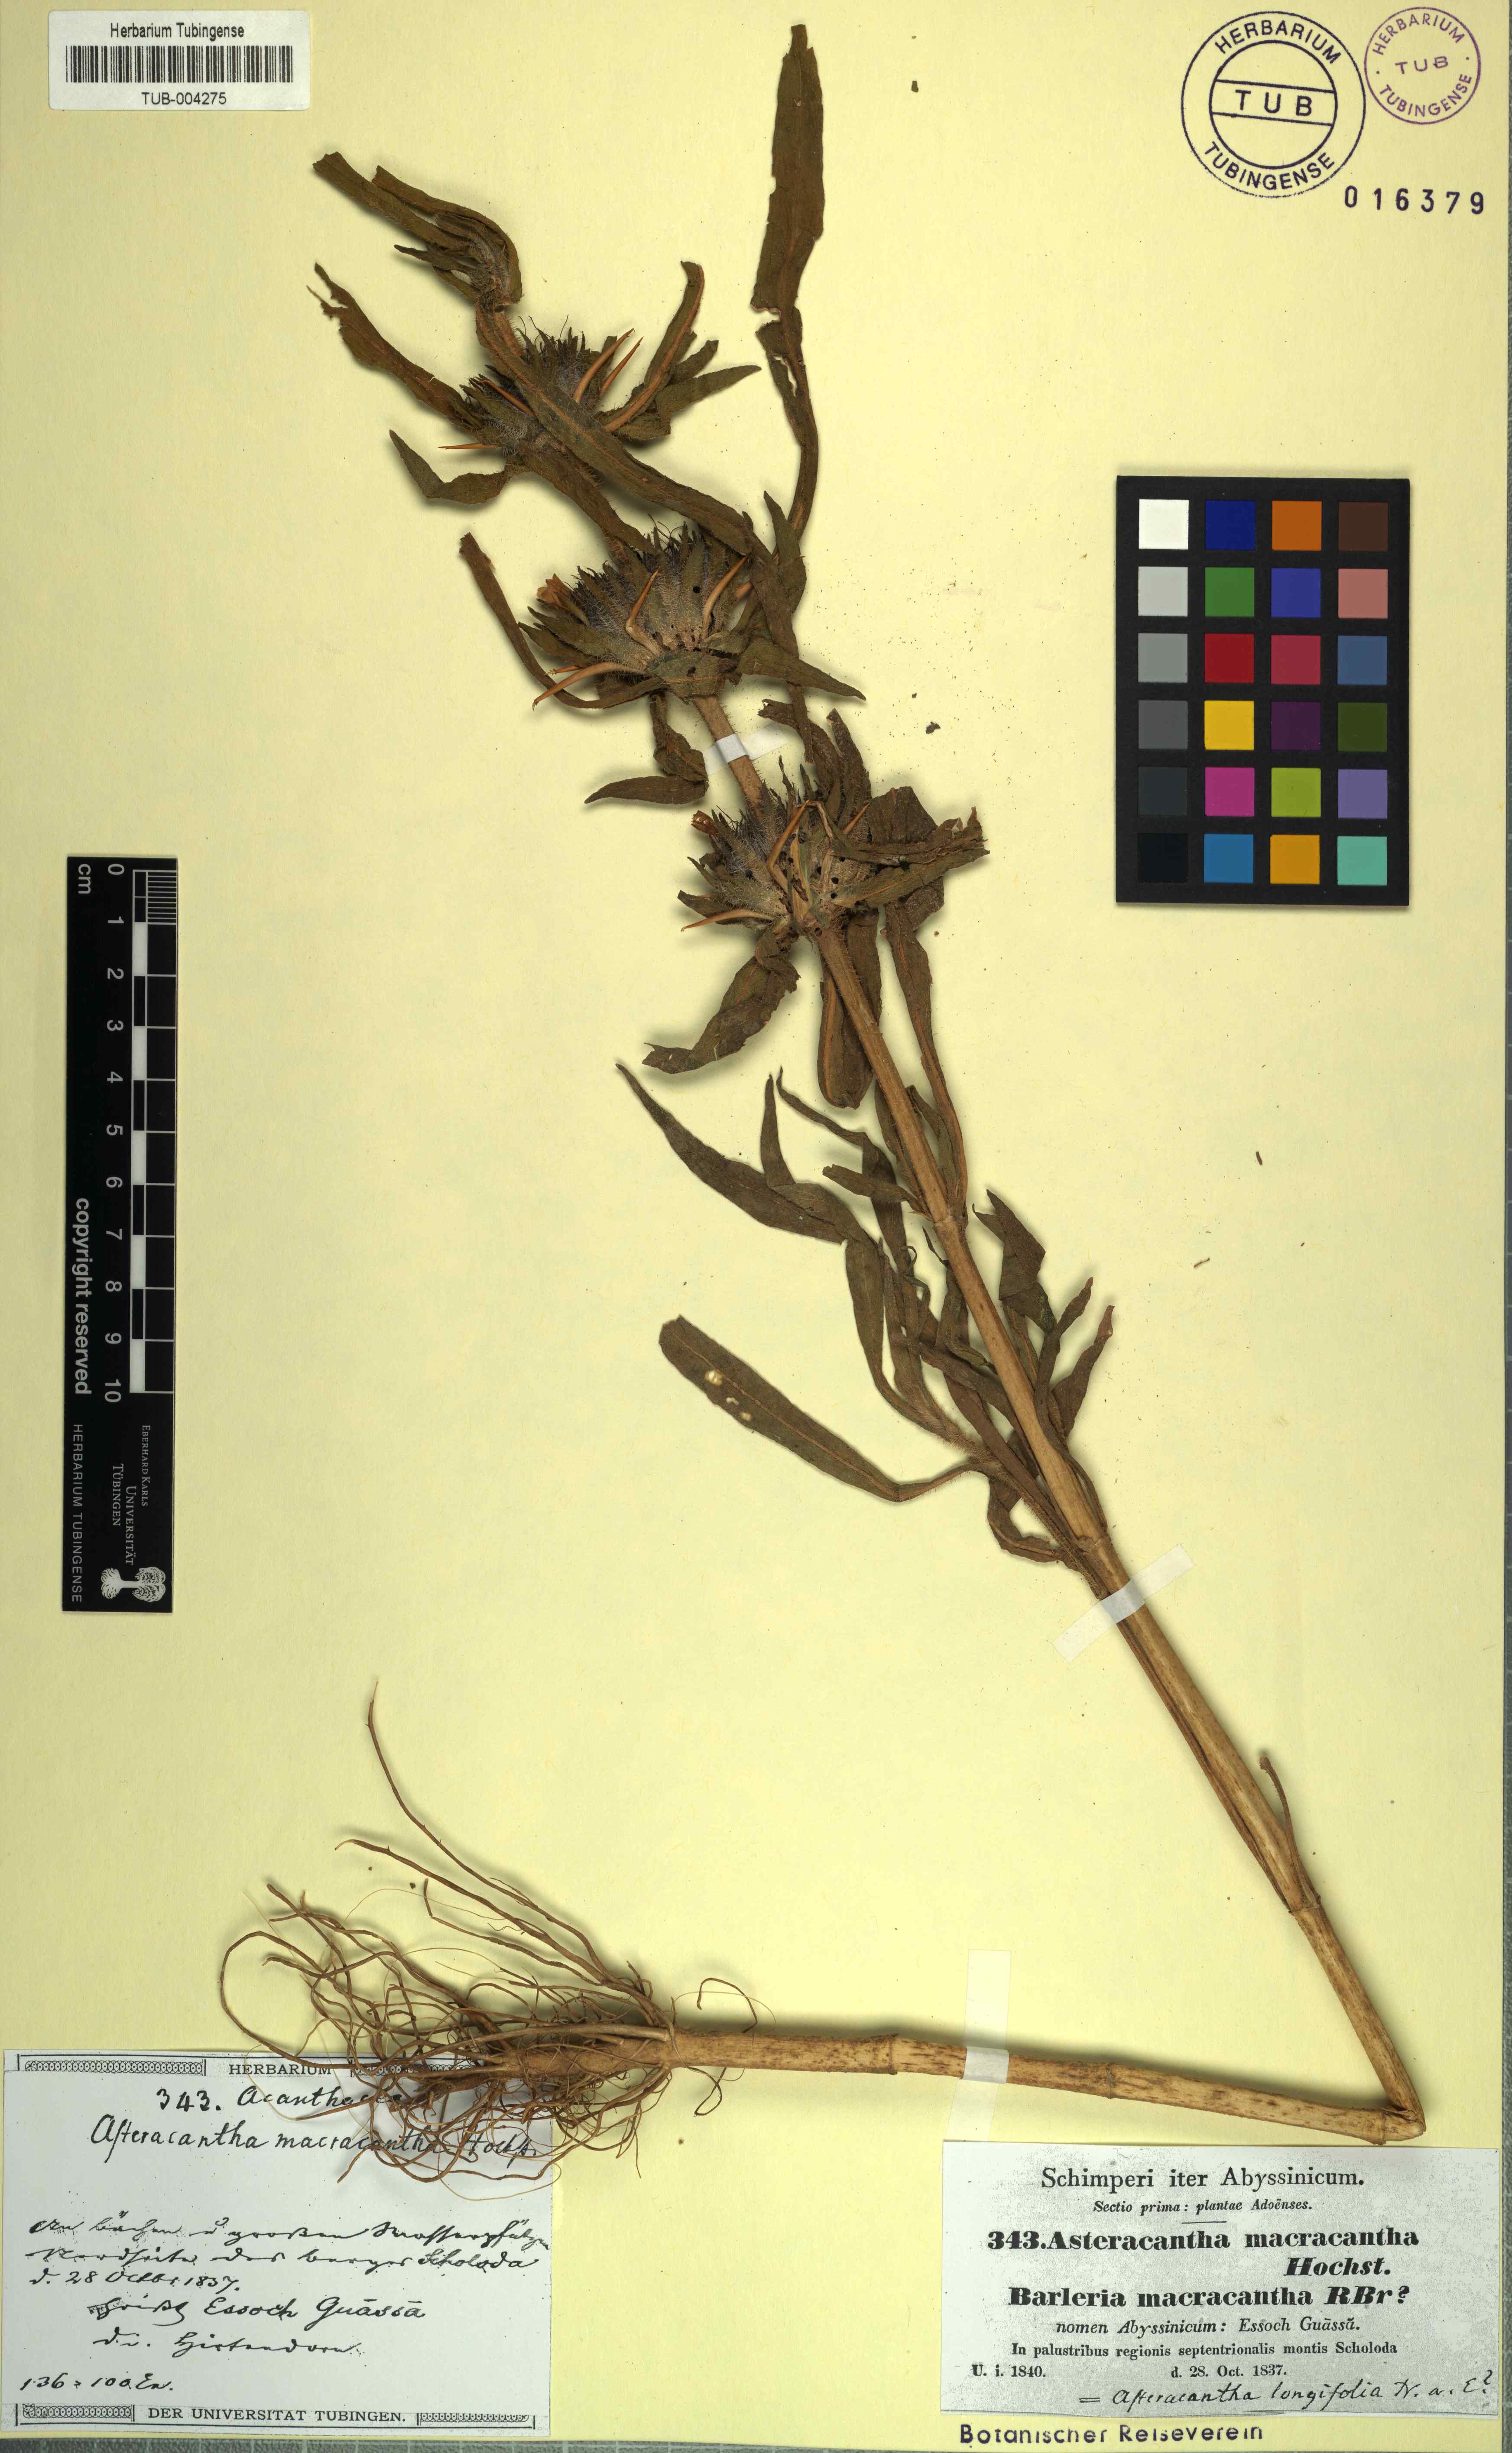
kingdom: Plantae
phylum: Tracheophyta
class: Magnoliopsida
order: Lamiales
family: Acanthaceae
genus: Hygrophila
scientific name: Hygrophila auriculata
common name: Hygrophila
